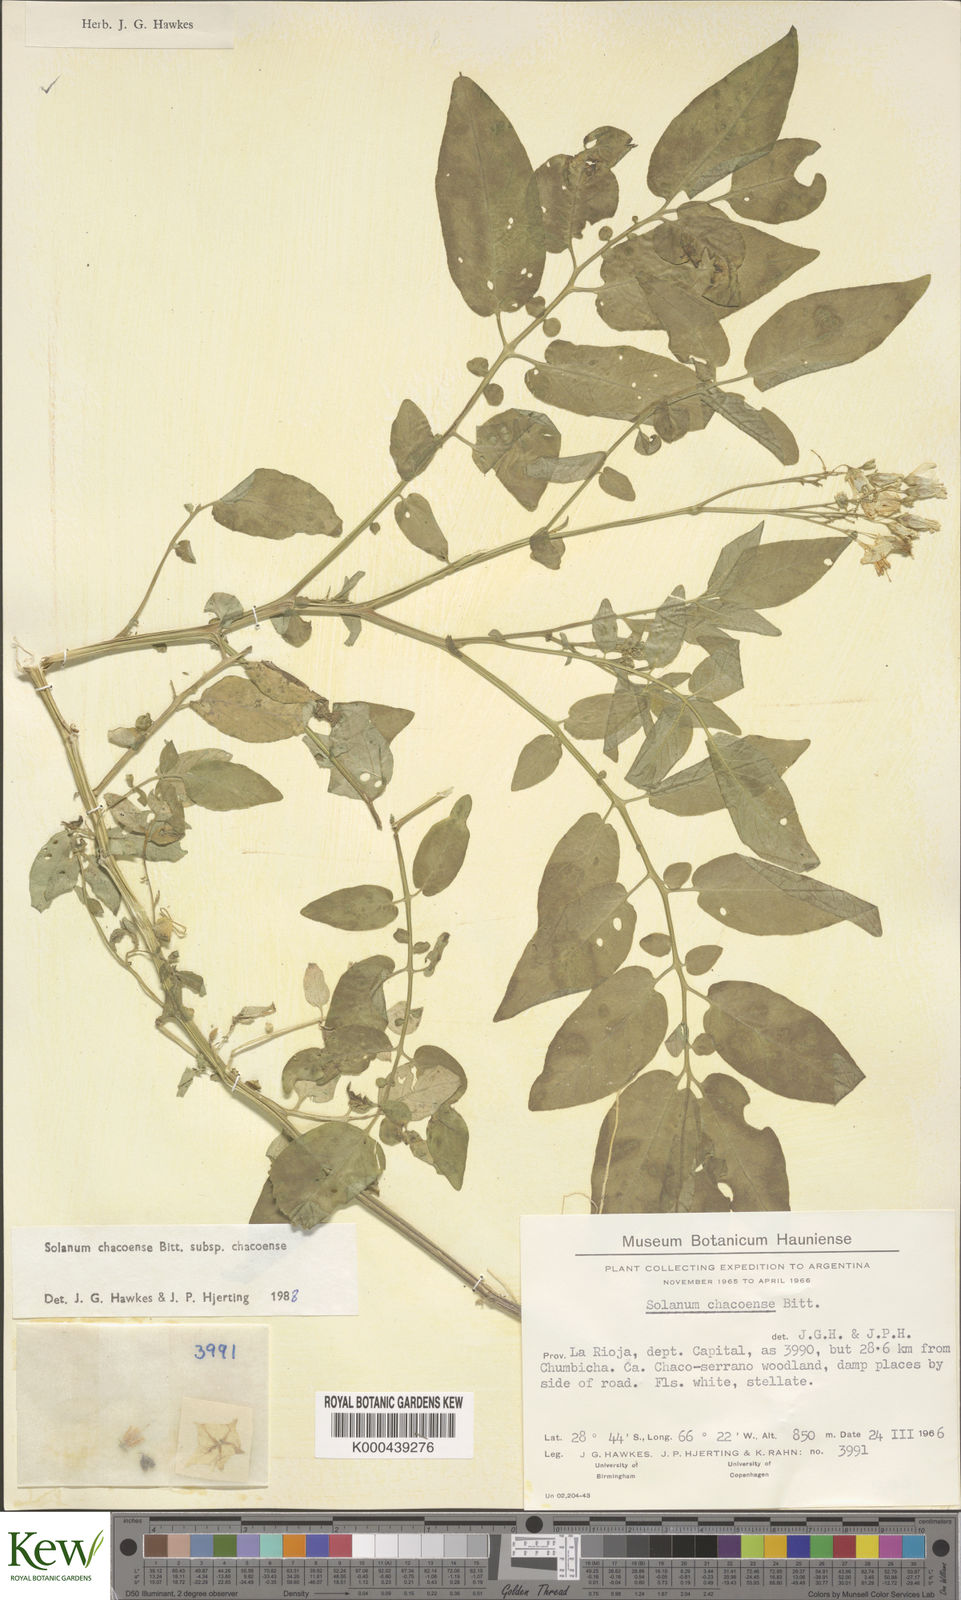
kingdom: Plantae
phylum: Tracheophyta
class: Magnoliopsida
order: Solanales
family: Solanaceae
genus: Solanum
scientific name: Solanum chacoense
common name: Chaco potato
